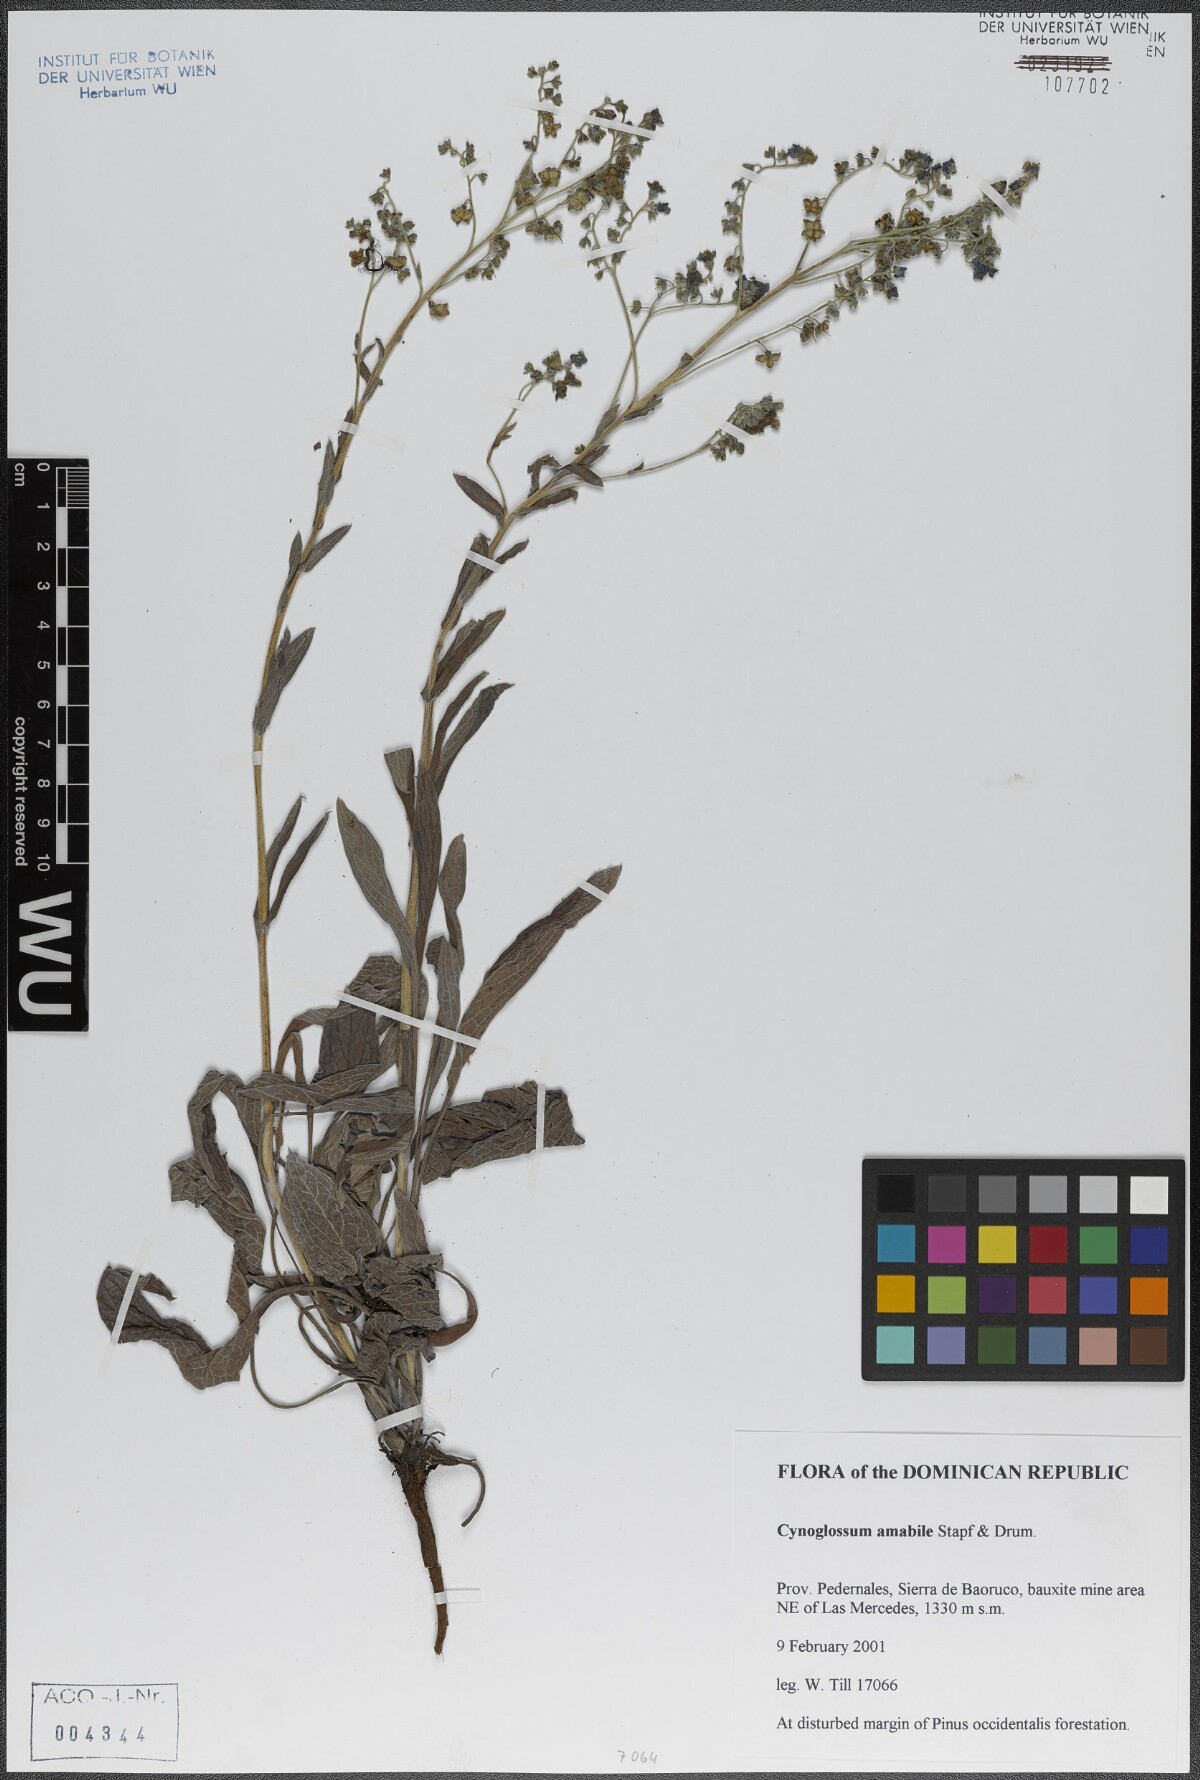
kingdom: Plantae
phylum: Tracheophyta
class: Magnoliopsida
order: Boraginales
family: Boraginaceae
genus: Cynoglossum
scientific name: Cynoglossum amabile
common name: Chinese hound's tongue
